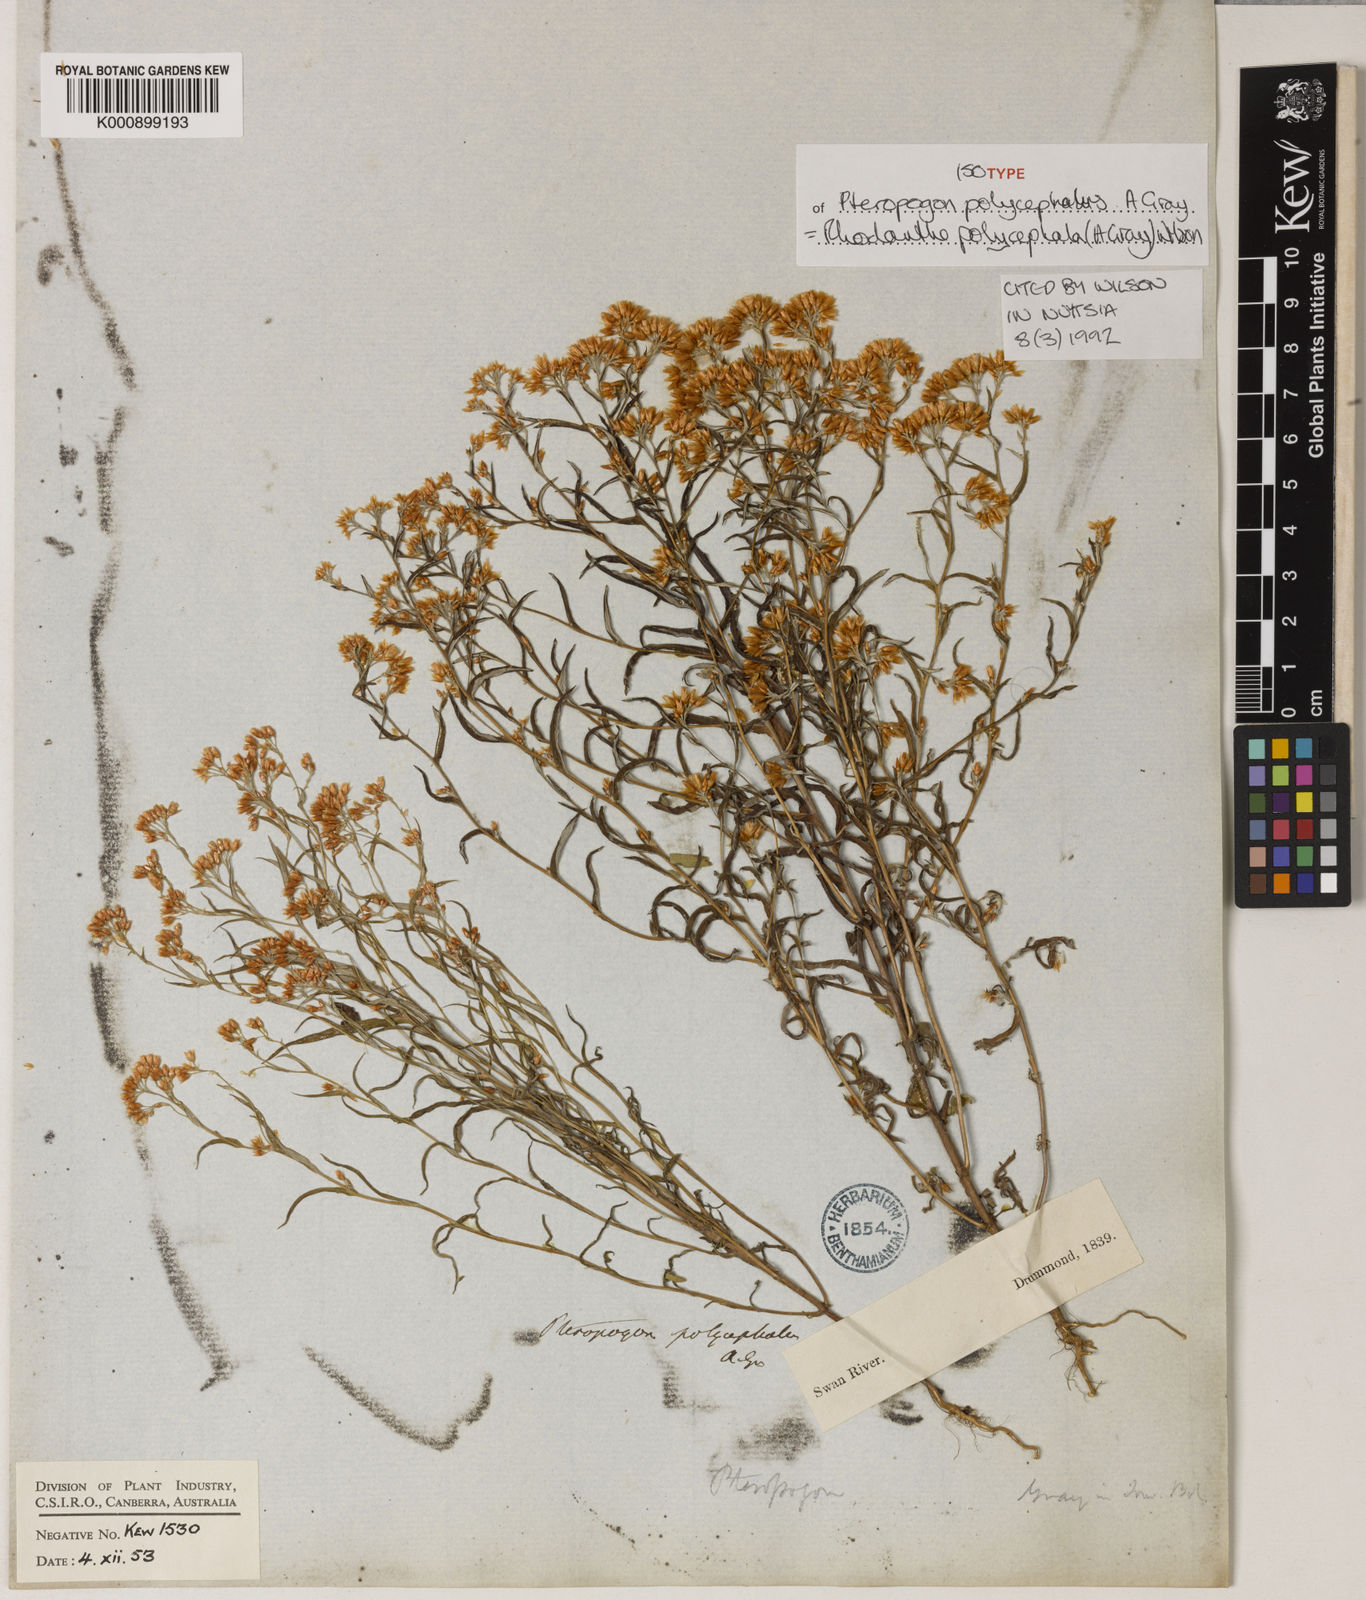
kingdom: Plantae
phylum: Tracheophyta
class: Magnoliopsida
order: Asterales
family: Asteraceae
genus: Rhodanthe
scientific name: Rhodanthe polycephala
